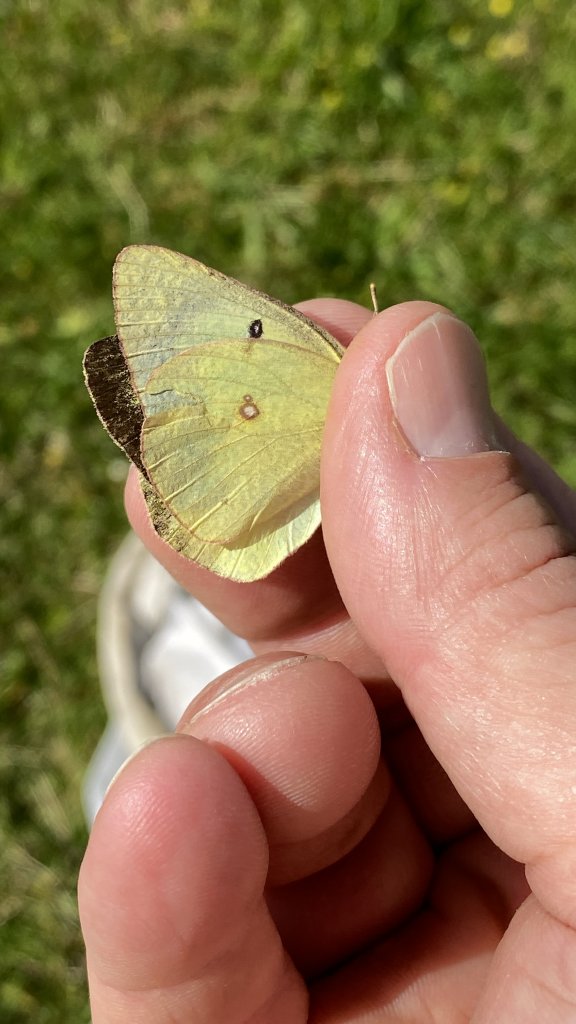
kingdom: Animalia
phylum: Arthropoda
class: Insecta
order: Lepidoptera
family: Pieridae
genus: Colias
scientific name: Colias philodice
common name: Clouded Sulphur
